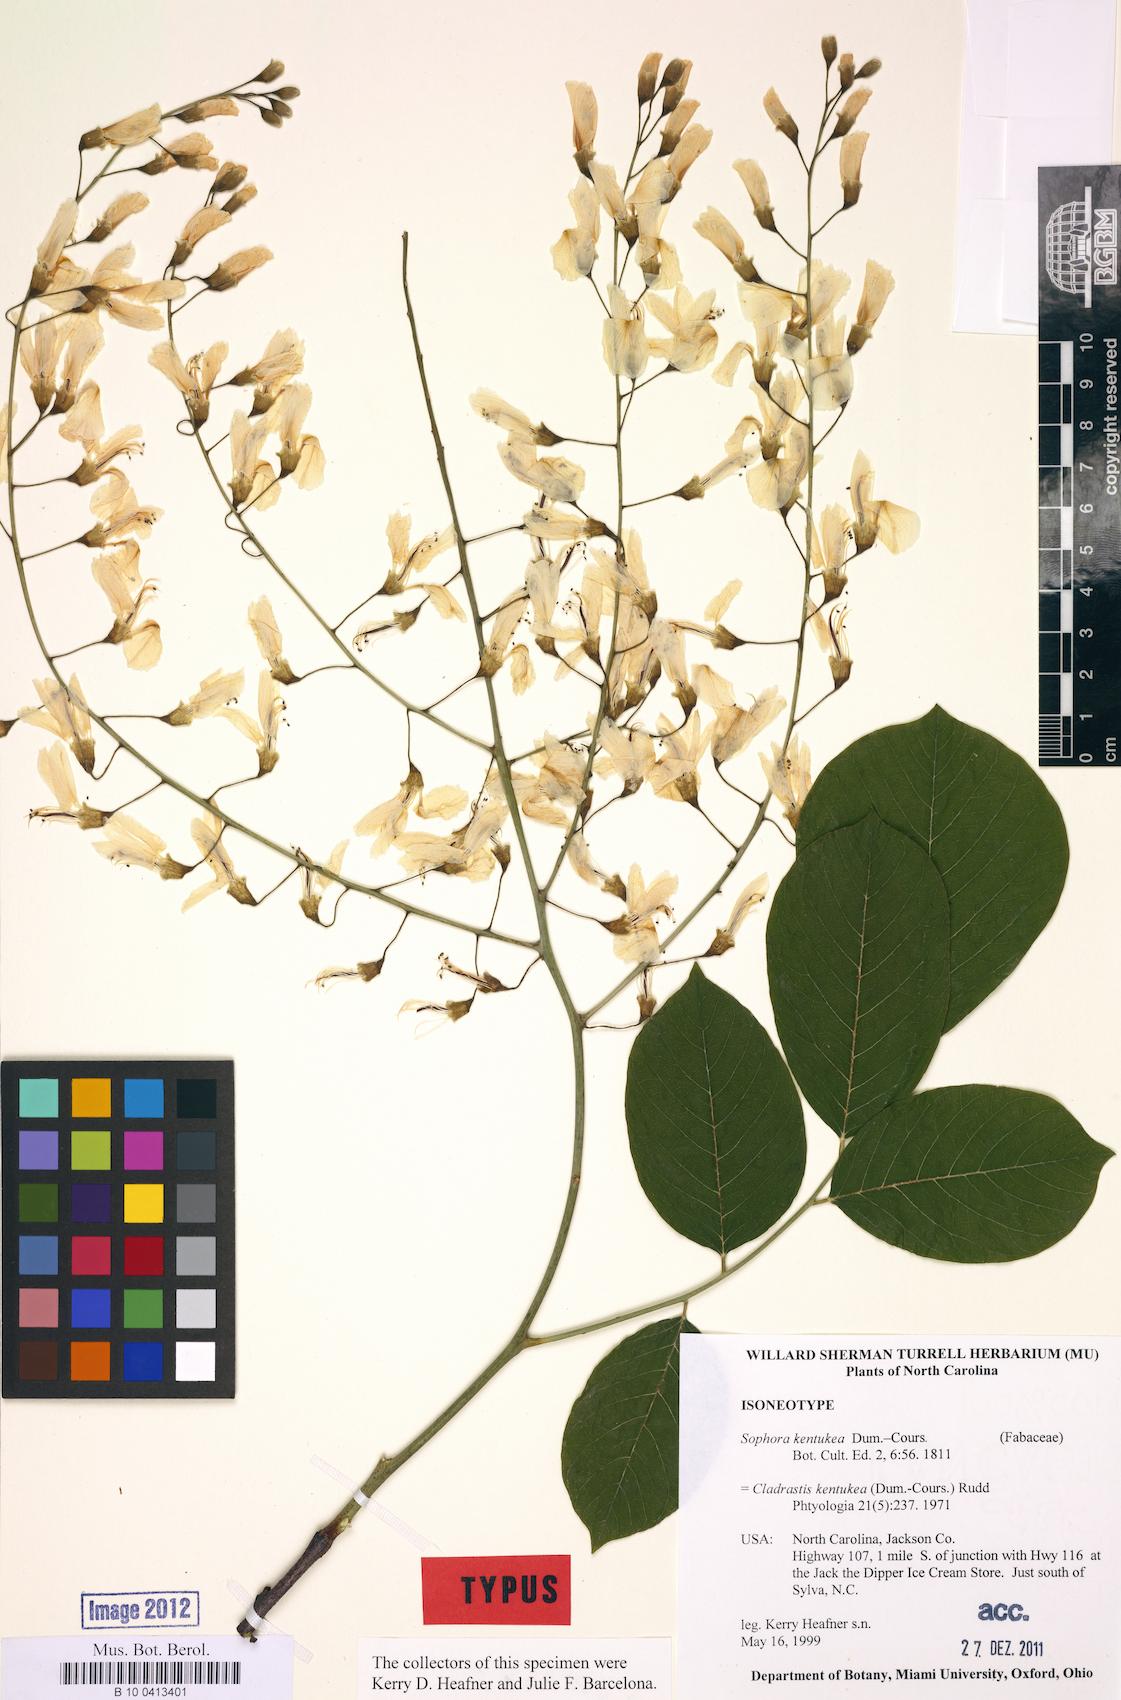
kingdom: Plantae
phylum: Tracheophyta
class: Magnoliopsida
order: Fabales
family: Fabaceae
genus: Cladrastis
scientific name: Cladrastis kentukea
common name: Kentucky yellow-wood
